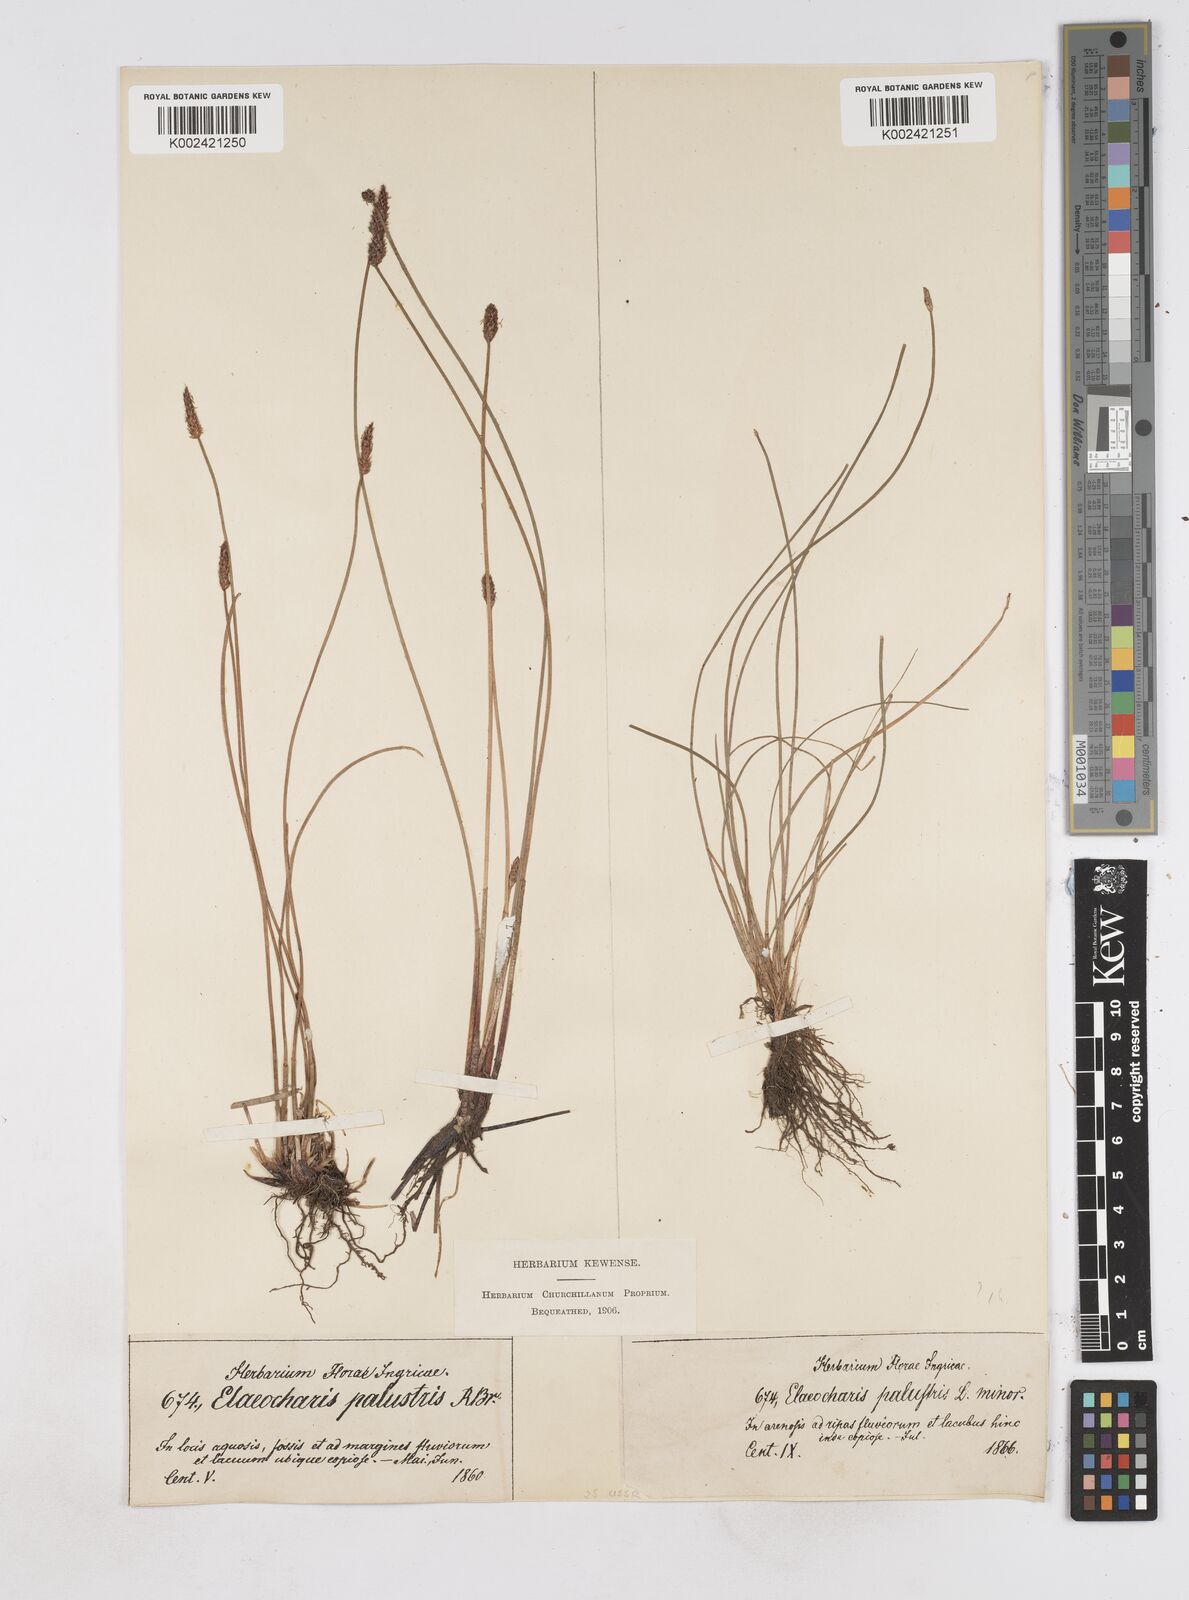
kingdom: Plantae
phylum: Tracheophyta
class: Liliopsida
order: Poales
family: Cyperaceae
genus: Eleocharis
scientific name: Eleocharis palustris
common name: Common spike-rush
